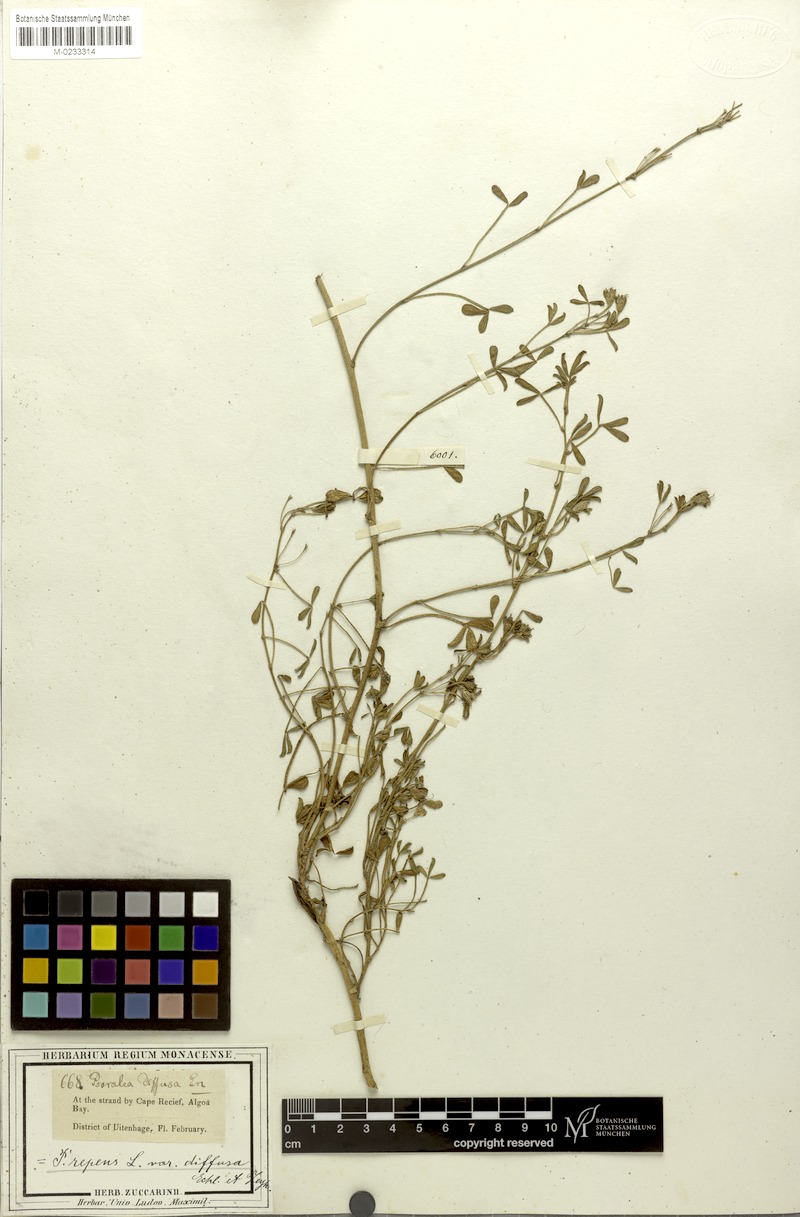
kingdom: Plantae
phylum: Tracheophyta
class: Magnoliopsida
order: Fabales
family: Fabaceae
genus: Psoralea
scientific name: Psoralea repens
